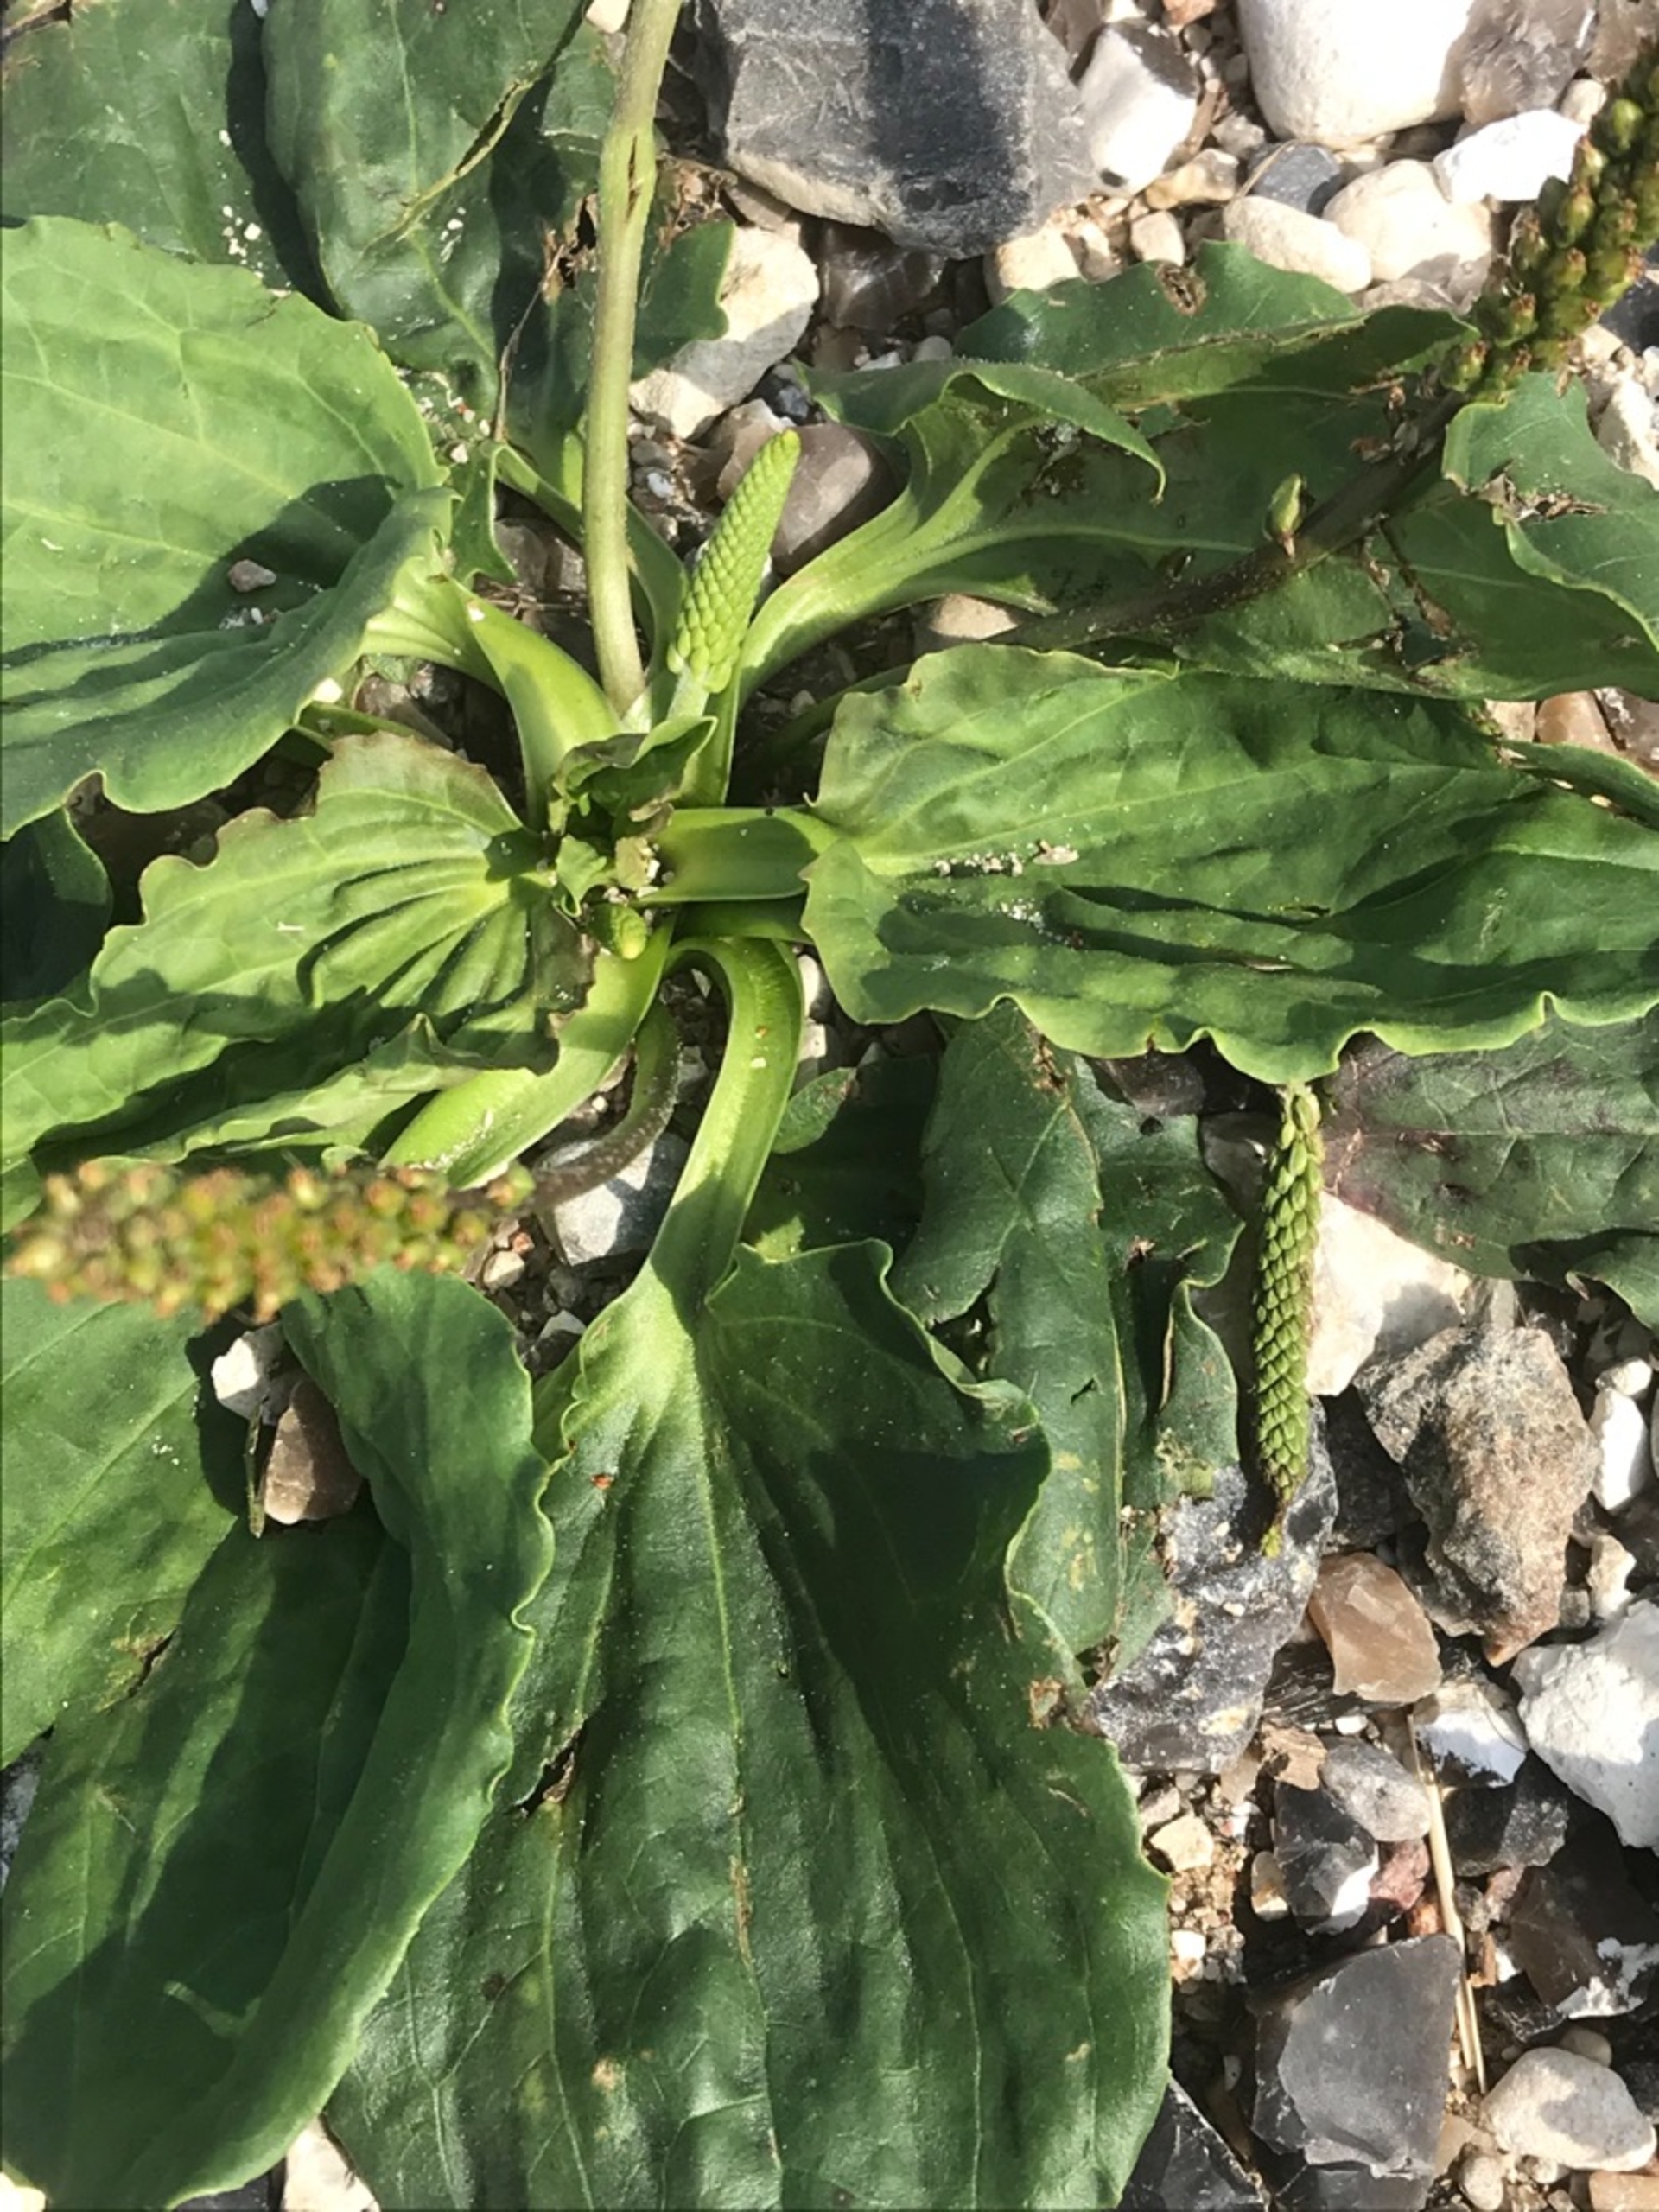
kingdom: Plantae
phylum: Tracheophyta
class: Magnoliopsida
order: Lamiales
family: Plantaginaceae
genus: Plantago
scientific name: Plantago major
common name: Glat vejbred
